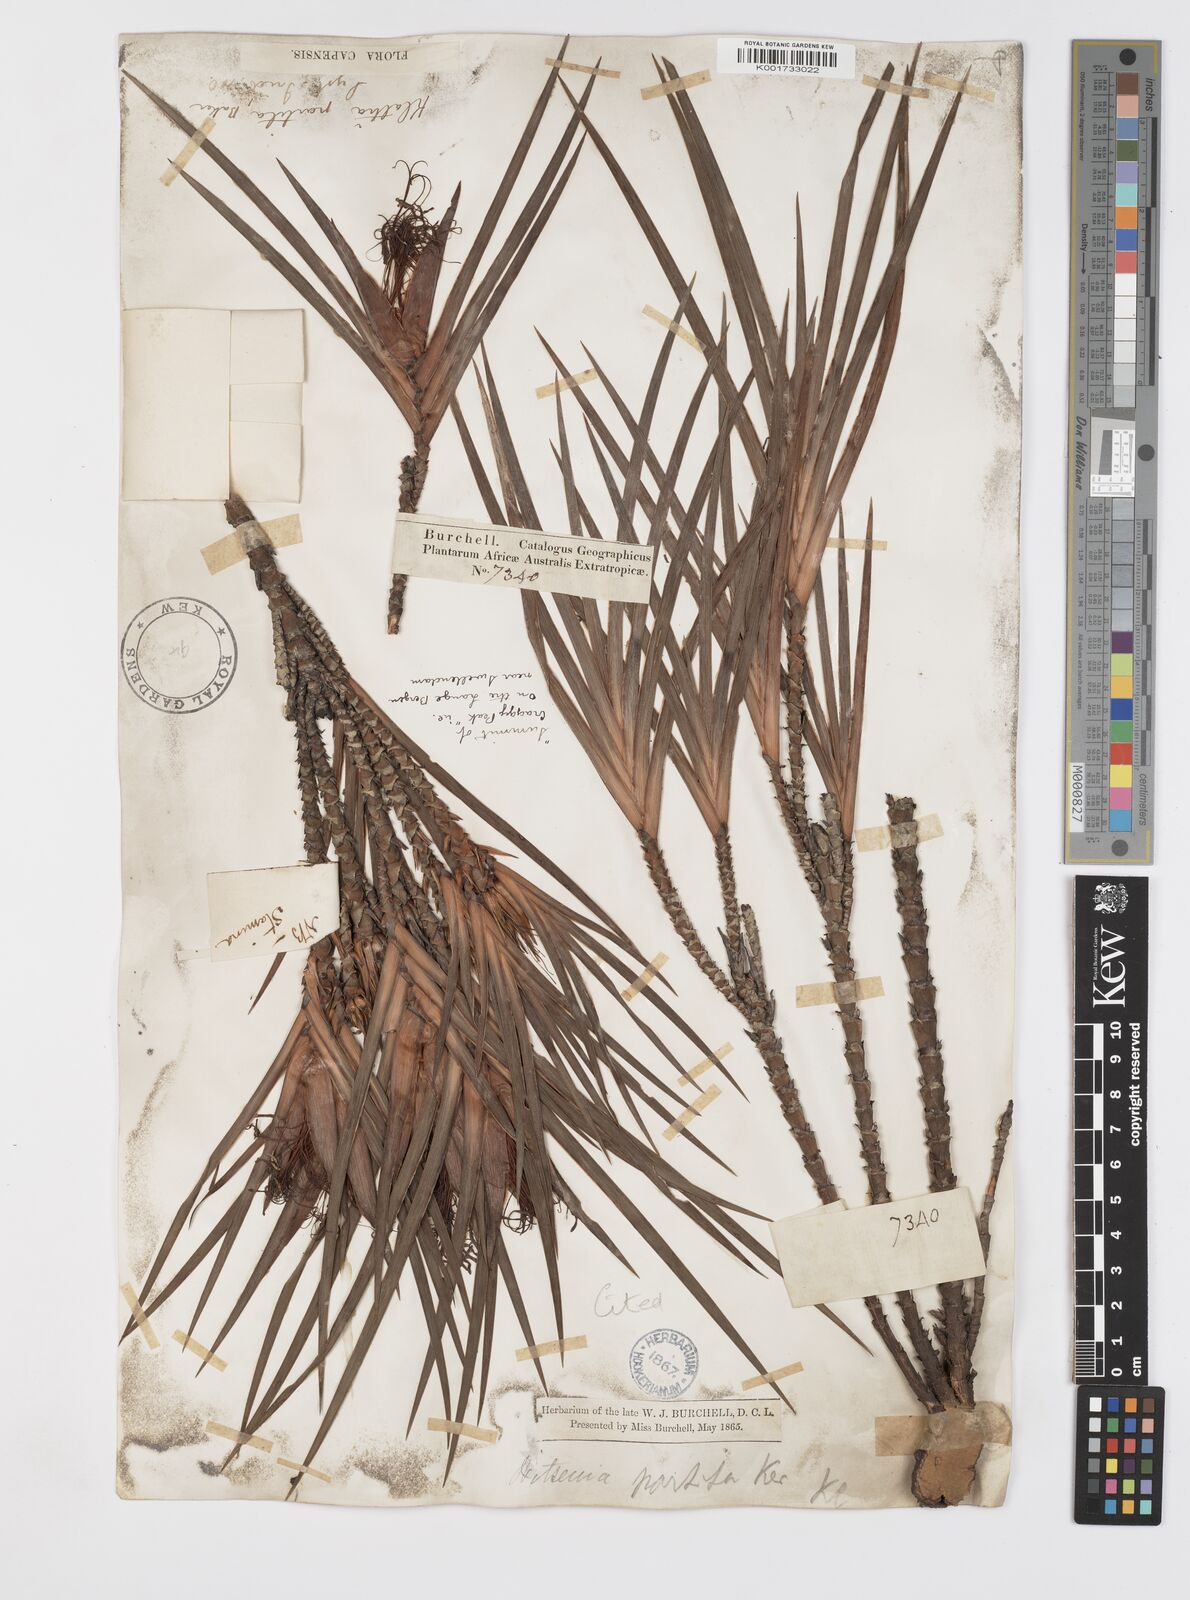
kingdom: Plantae
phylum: Tracheophyta
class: Liliopsida
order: Asparagales
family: Iridaceae
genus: Klattia
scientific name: Klattia partita
